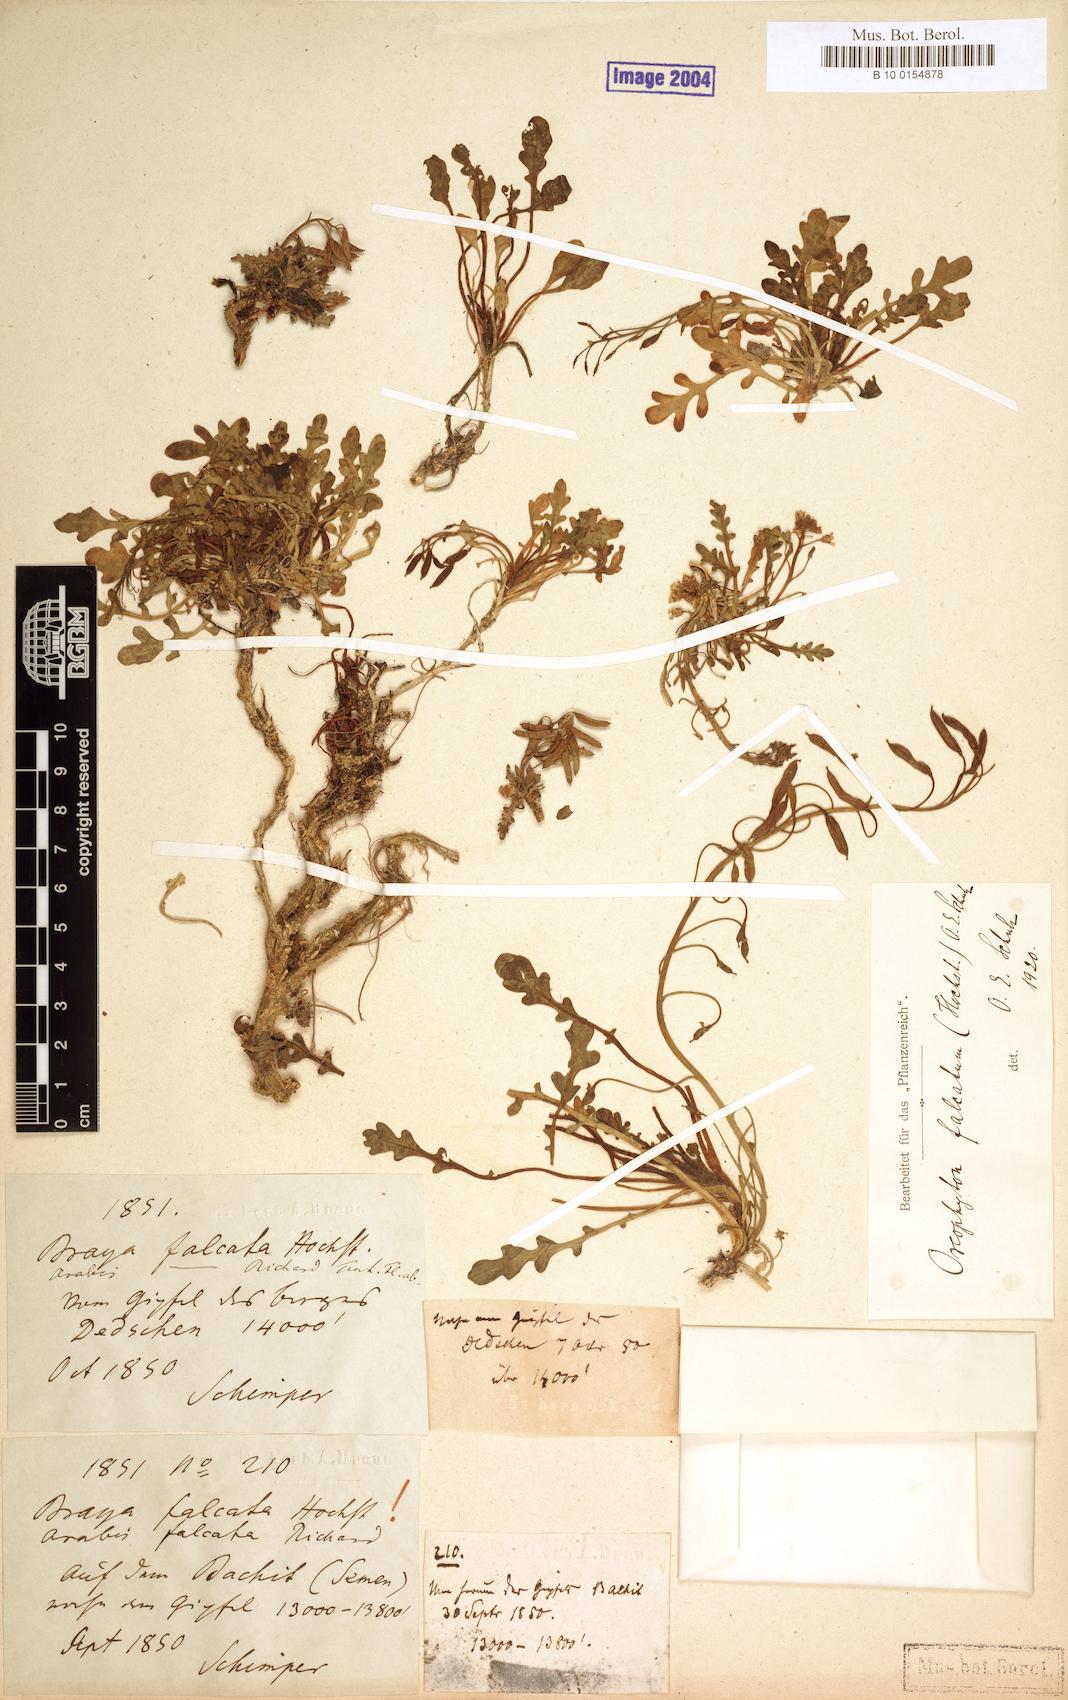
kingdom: Plantae
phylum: Tracheophyta
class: Magnoliopsida
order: Brassicales
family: Brassicaceae
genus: Oreophyton
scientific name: Oreophyton falcatum
